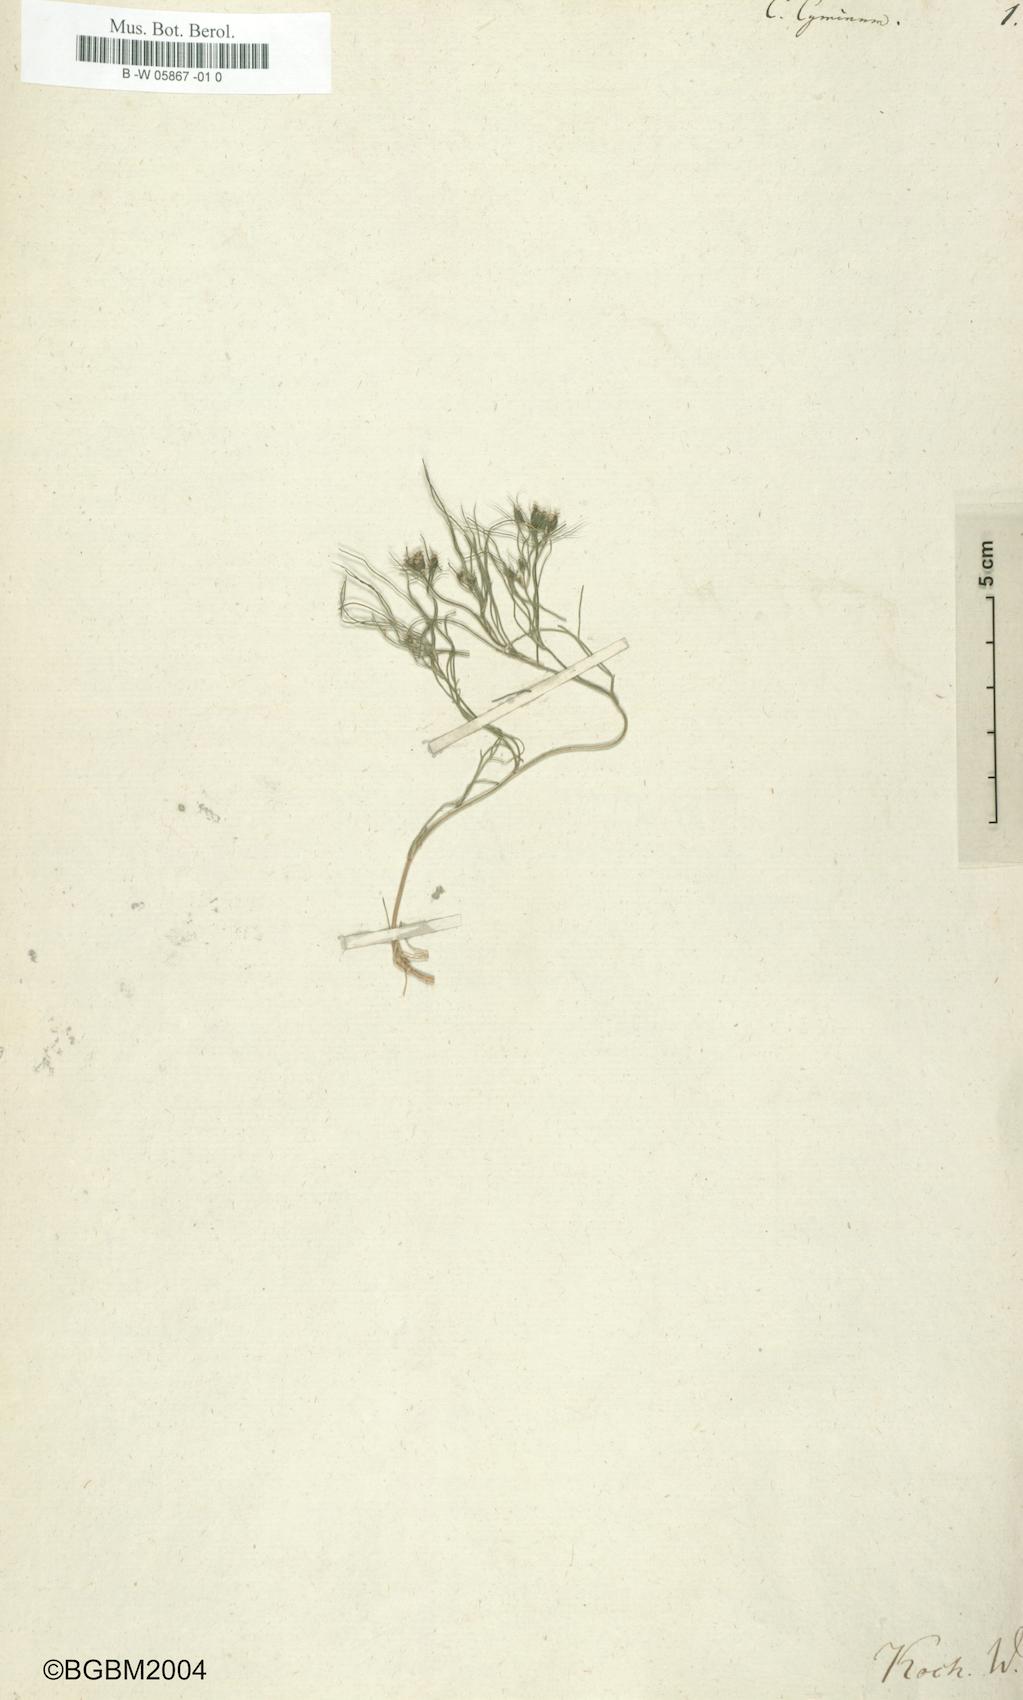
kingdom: Plantae
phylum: Tracheophyta
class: Magnoliopsida
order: Apiales
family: Apiaceae
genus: Cuminum
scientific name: Cuminum cyminum
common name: Cumin
